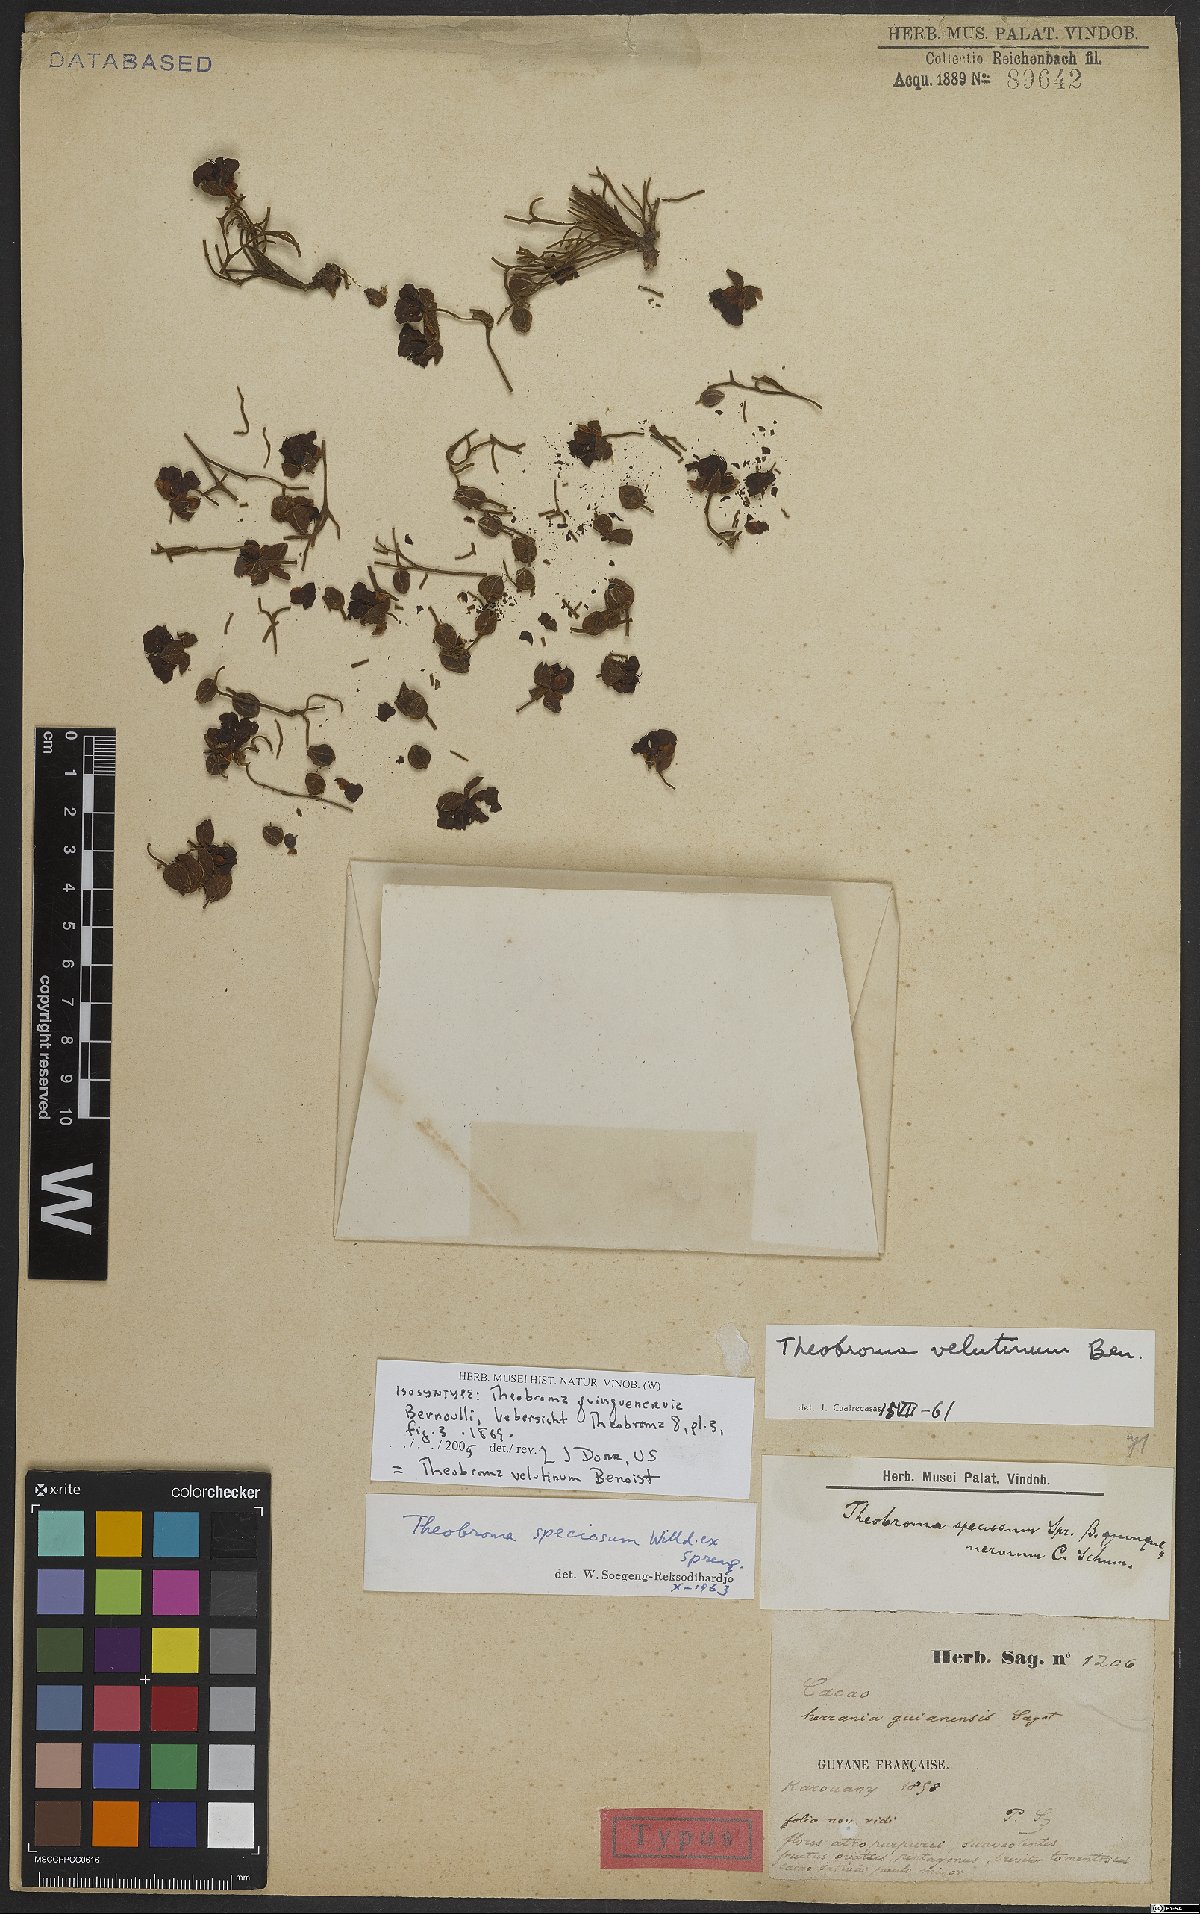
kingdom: Plantae
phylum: Tracheophyta
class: Magnoliopsida
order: Malvales
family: Malvaceae
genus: Theobroma
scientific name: Theobroma velutinum
